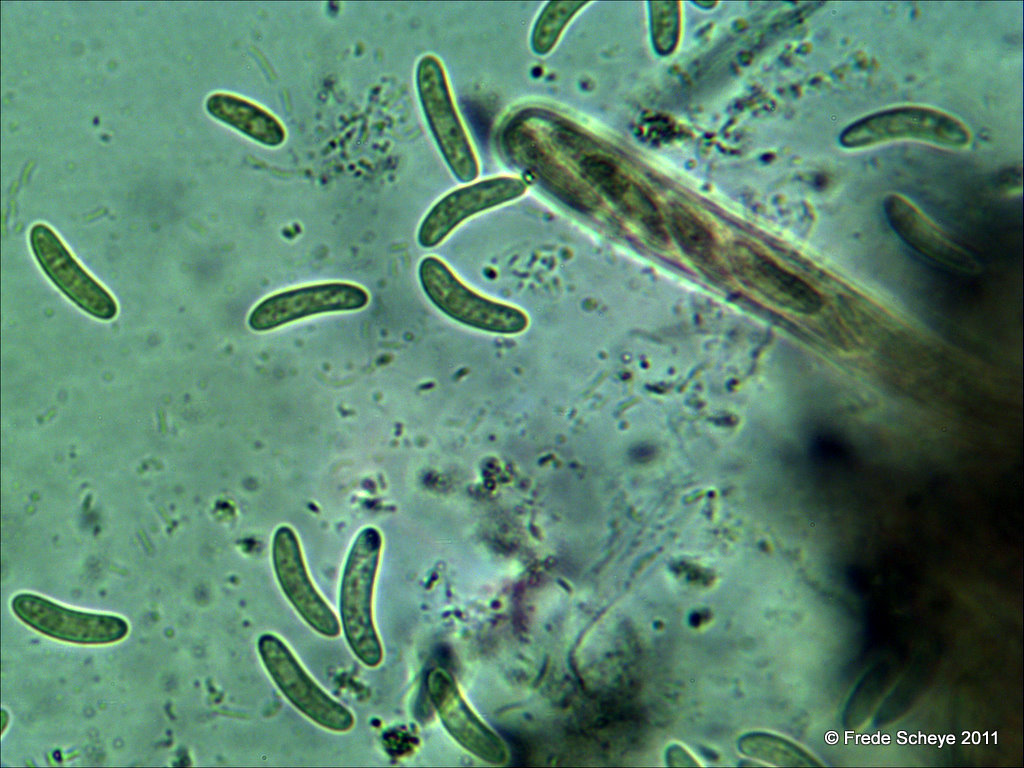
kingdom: Fungi
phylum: Ascomycota
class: Leotiomycetes
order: Helotiales
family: Sclerotiniaceae
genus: Sclerencoelia
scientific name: Sclerencoelia fraxinicola
